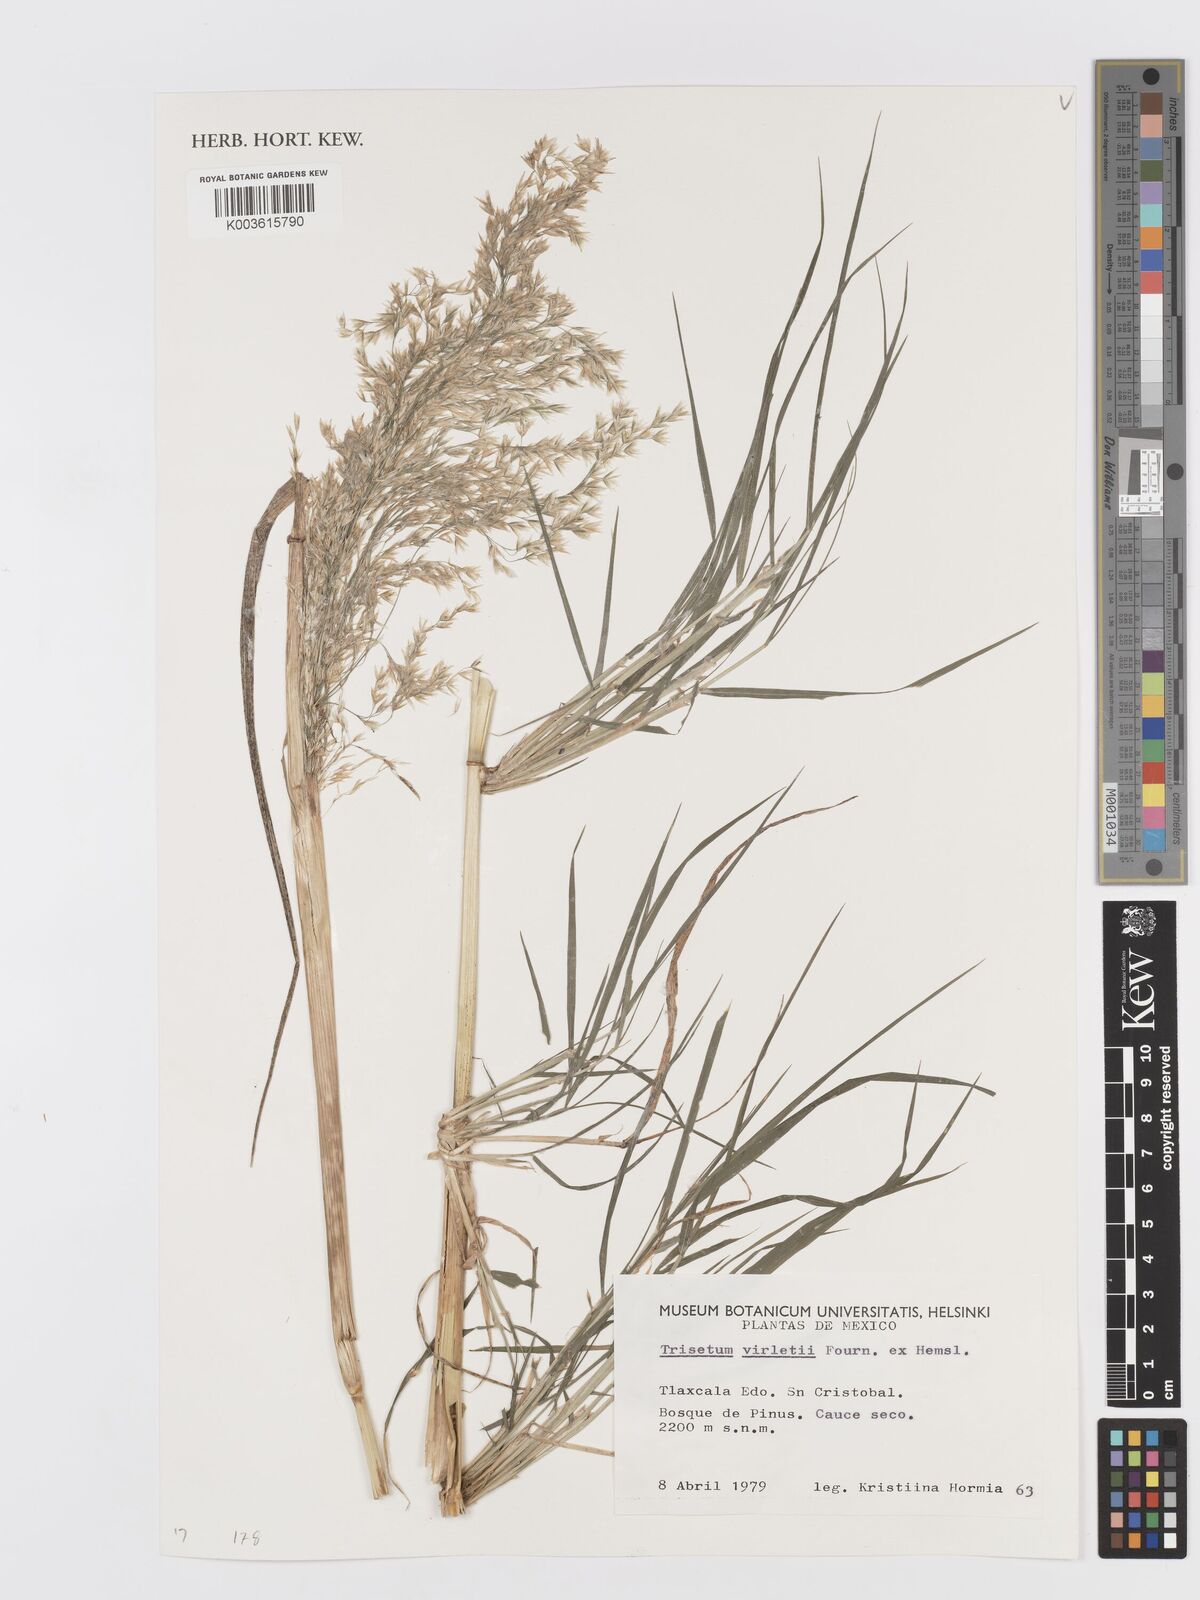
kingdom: Plantae
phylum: Tracheophyta
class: Liliopsida
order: Poales
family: Poaceae
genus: Peyritschia
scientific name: Peyritschia virletii
